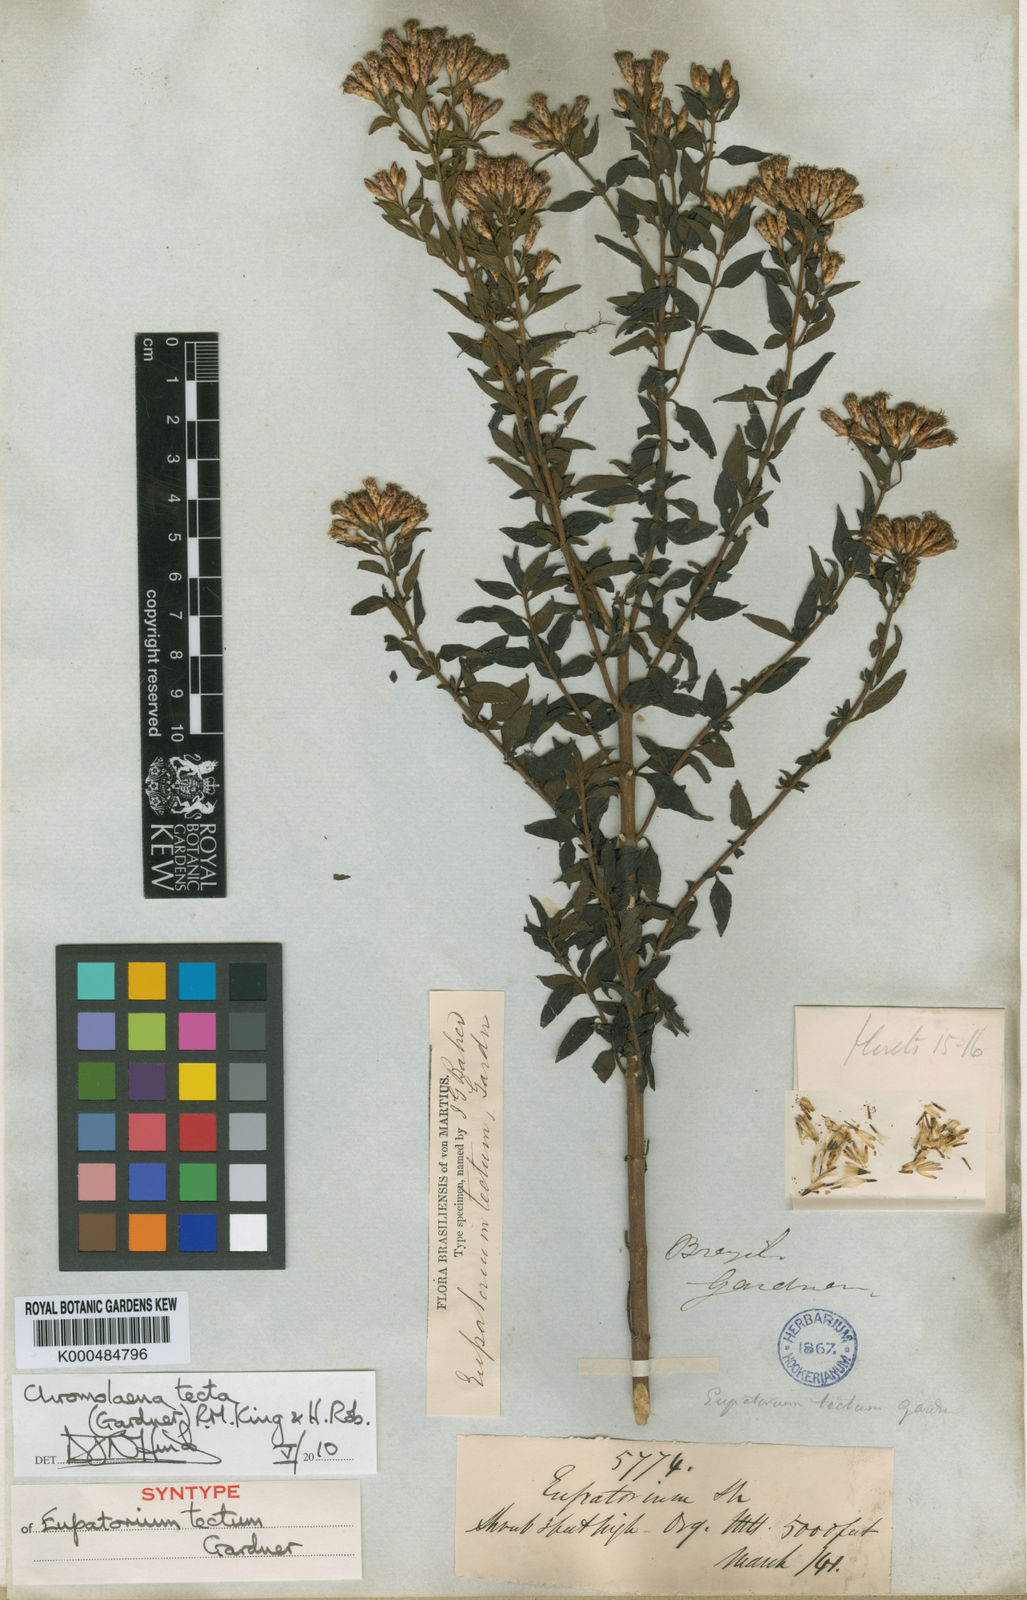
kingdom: Plantae
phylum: Tracheophyta
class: Magnoliopsida
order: Asterales
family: Asteraceae
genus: Chromolaena
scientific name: Chromolaena tecta
